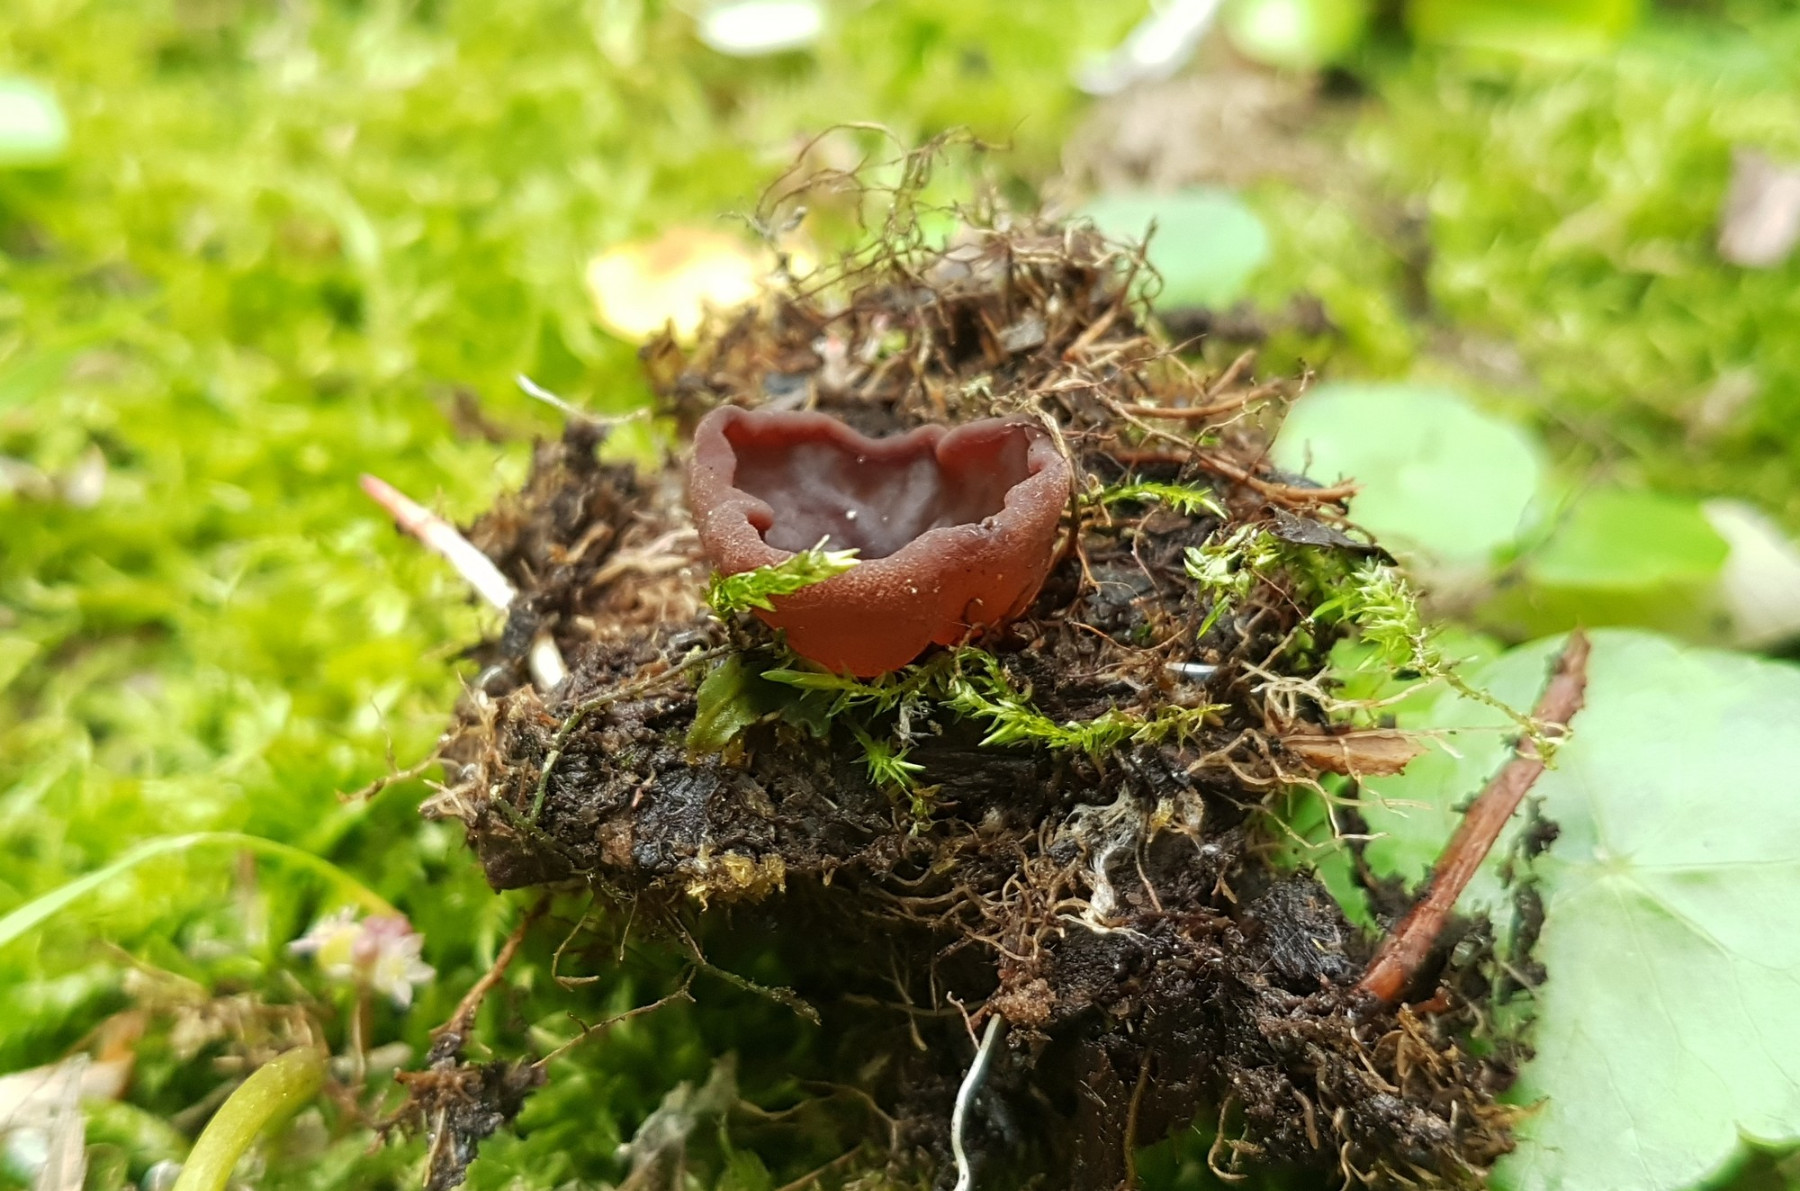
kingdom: Fungi
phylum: Ascomycota
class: Pezizomycetes
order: Pezizales
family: Pezizaceae
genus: Legaliana
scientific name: Legaliana limnaea
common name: mose-bægersvamp
